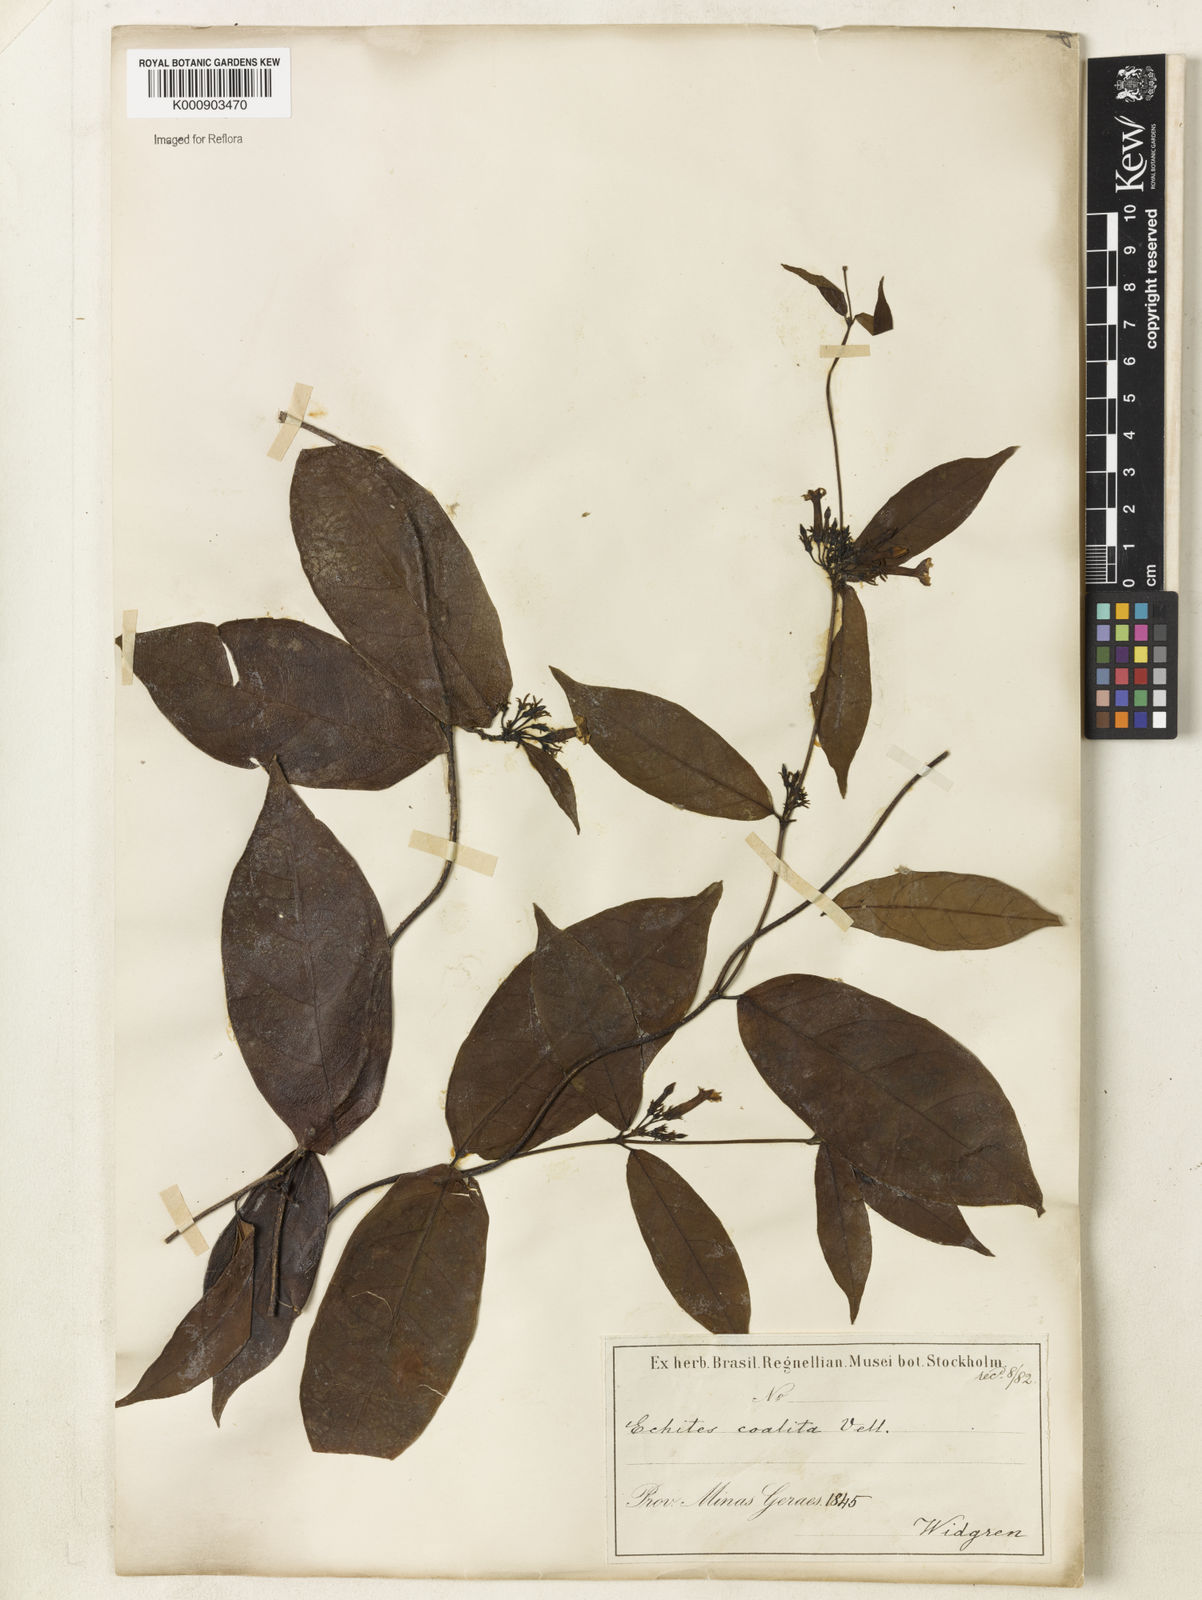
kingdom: Plantae
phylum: Tracheophyta
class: Magnoliopsida
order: Gentianales
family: Apocynaceae
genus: Prestonia
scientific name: Prestonia coalita
